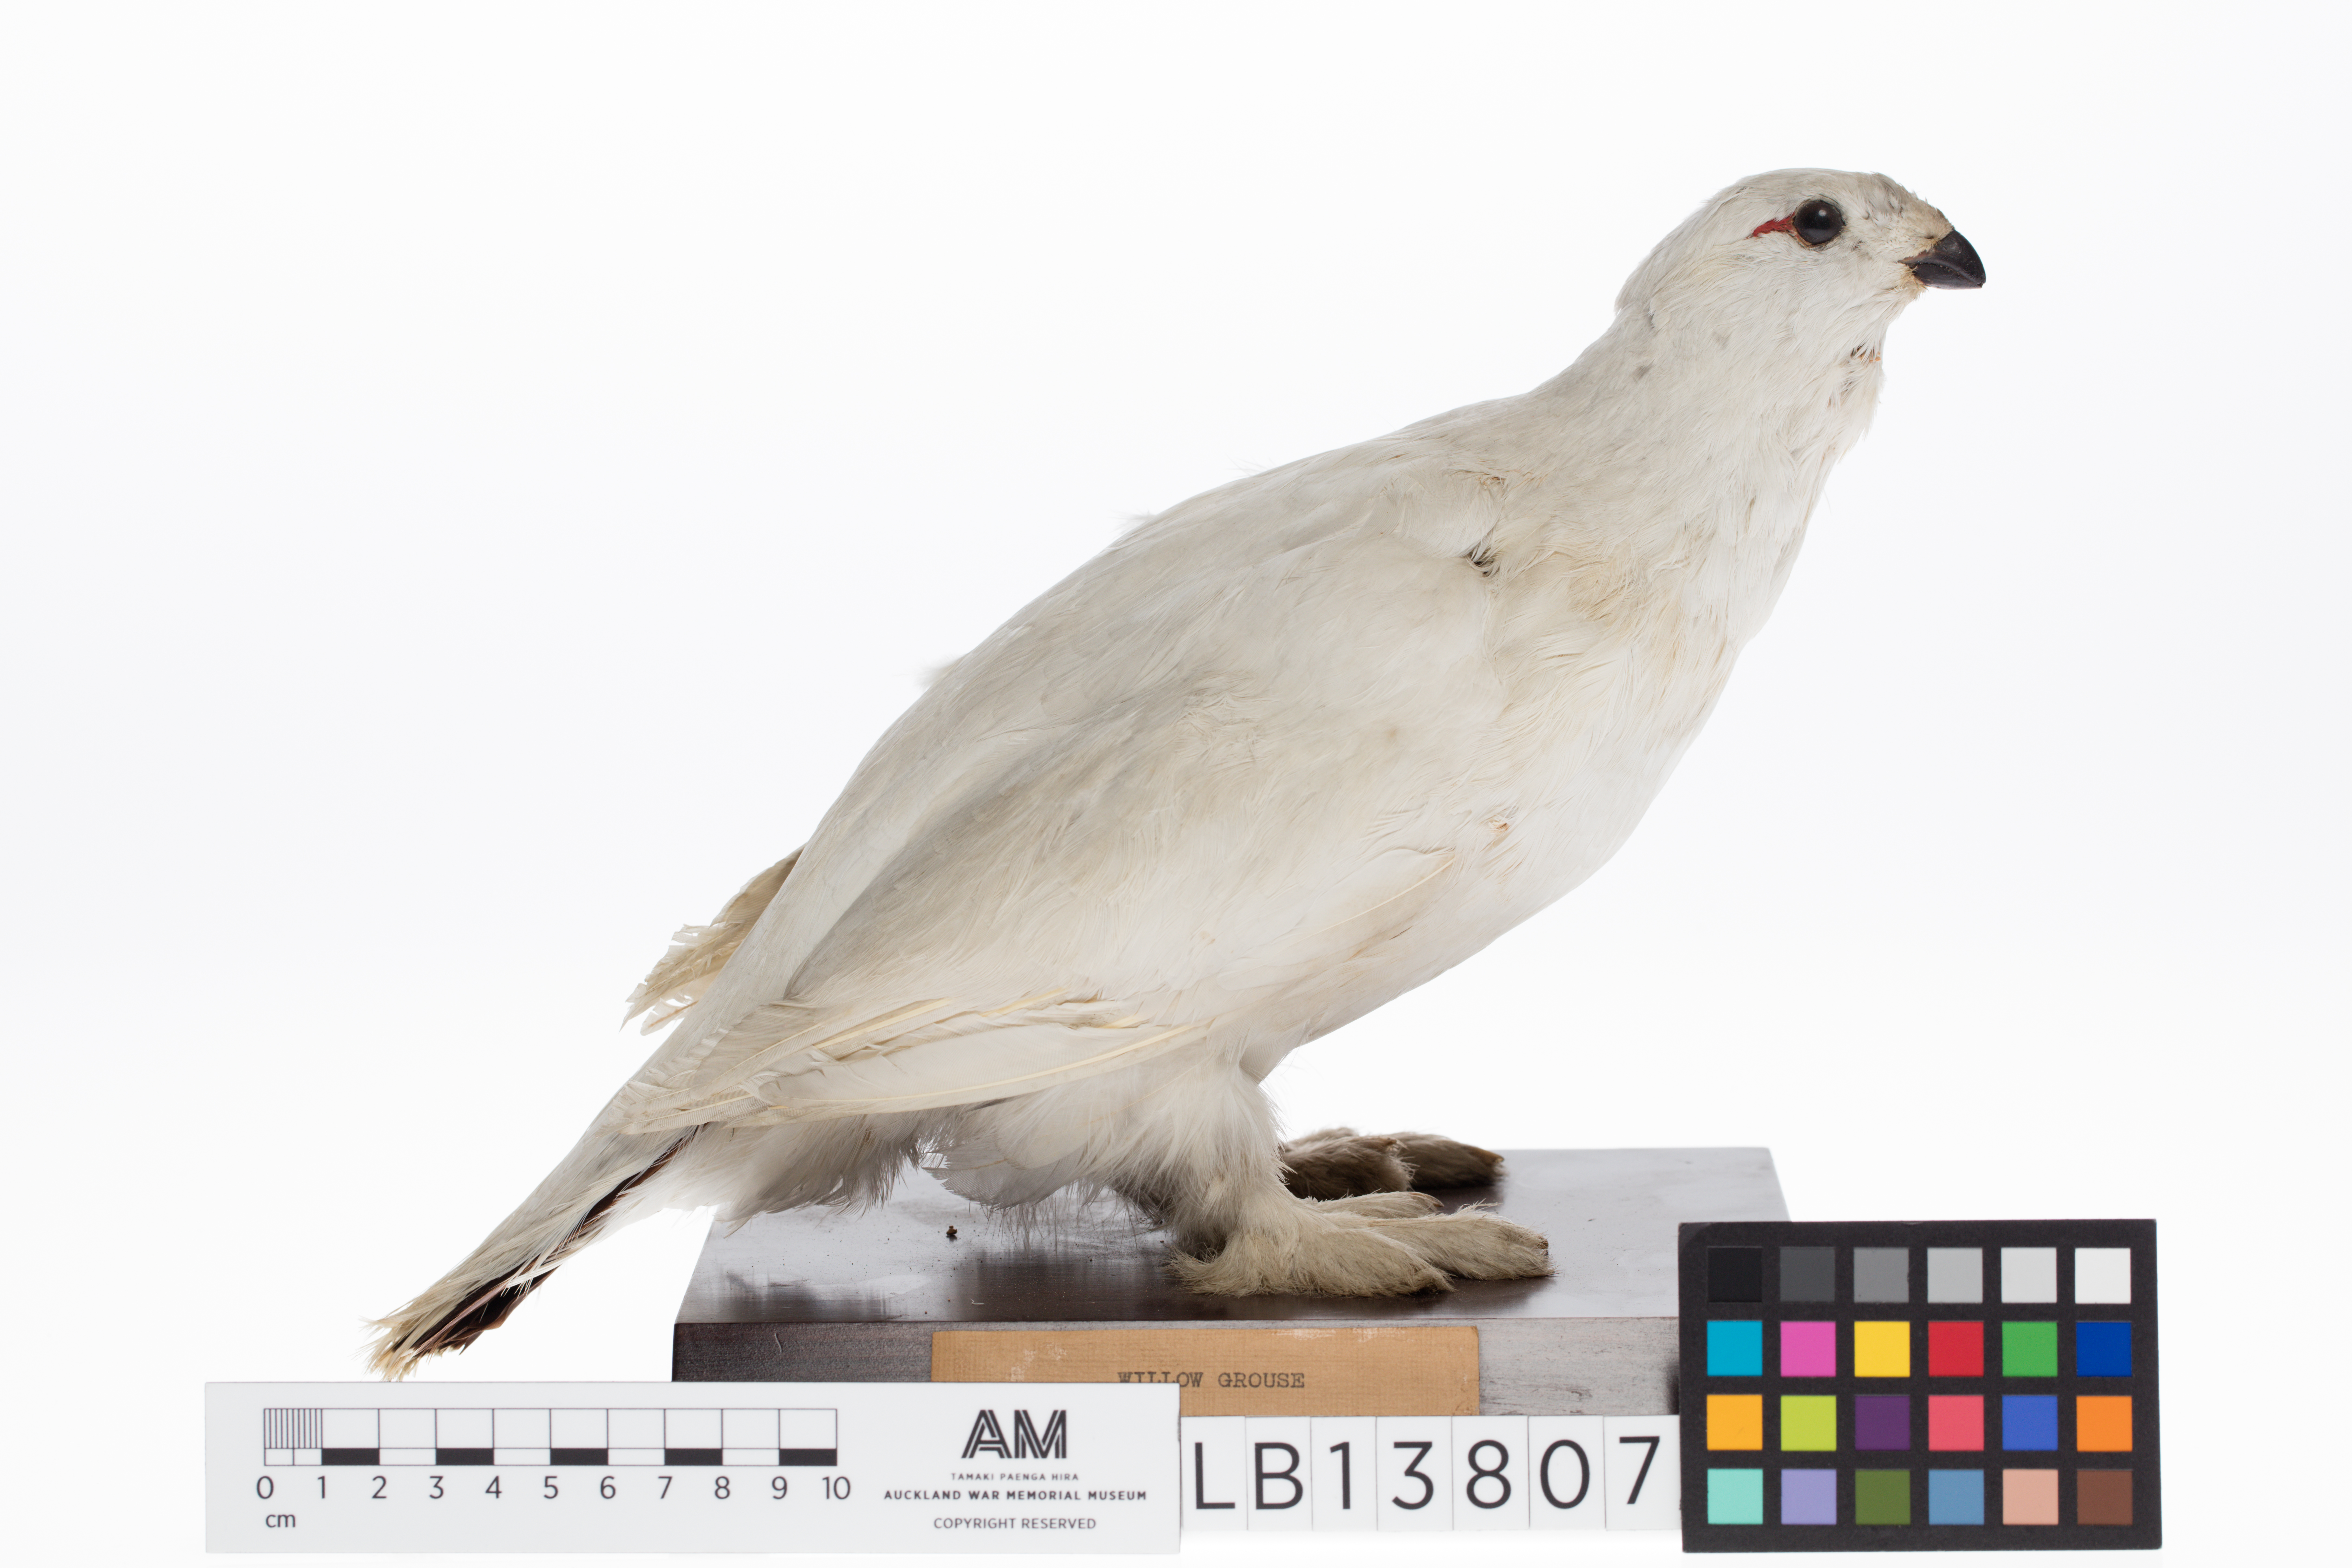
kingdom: Animalia
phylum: Chordata
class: Aves
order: Galliformes
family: Phasianidae
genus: Lagopus
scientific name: Lagopus lagopus
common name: Willow ptarmigan
